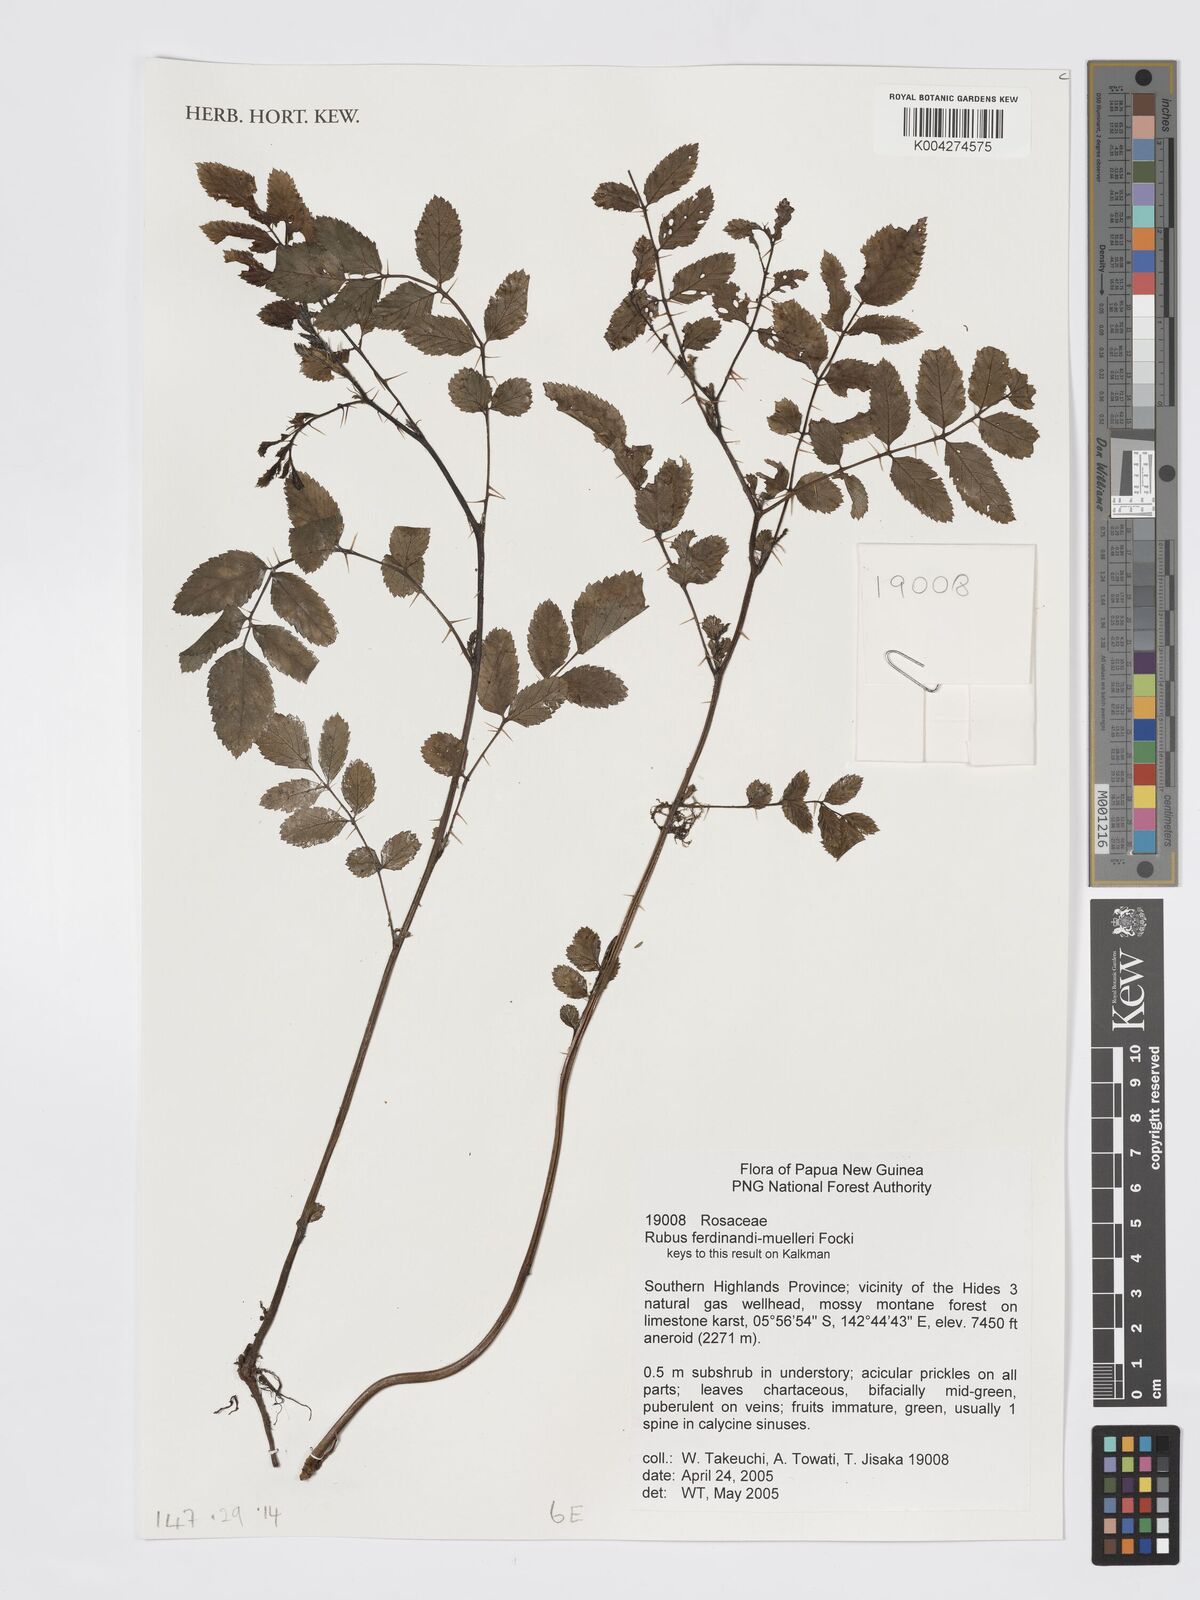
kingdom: Plantae
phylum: Tracheophyta
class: Magnoliopsida
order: Rosales
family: Rosaceae
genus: Rubus
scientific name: Rubus ferdinandimuelleri
